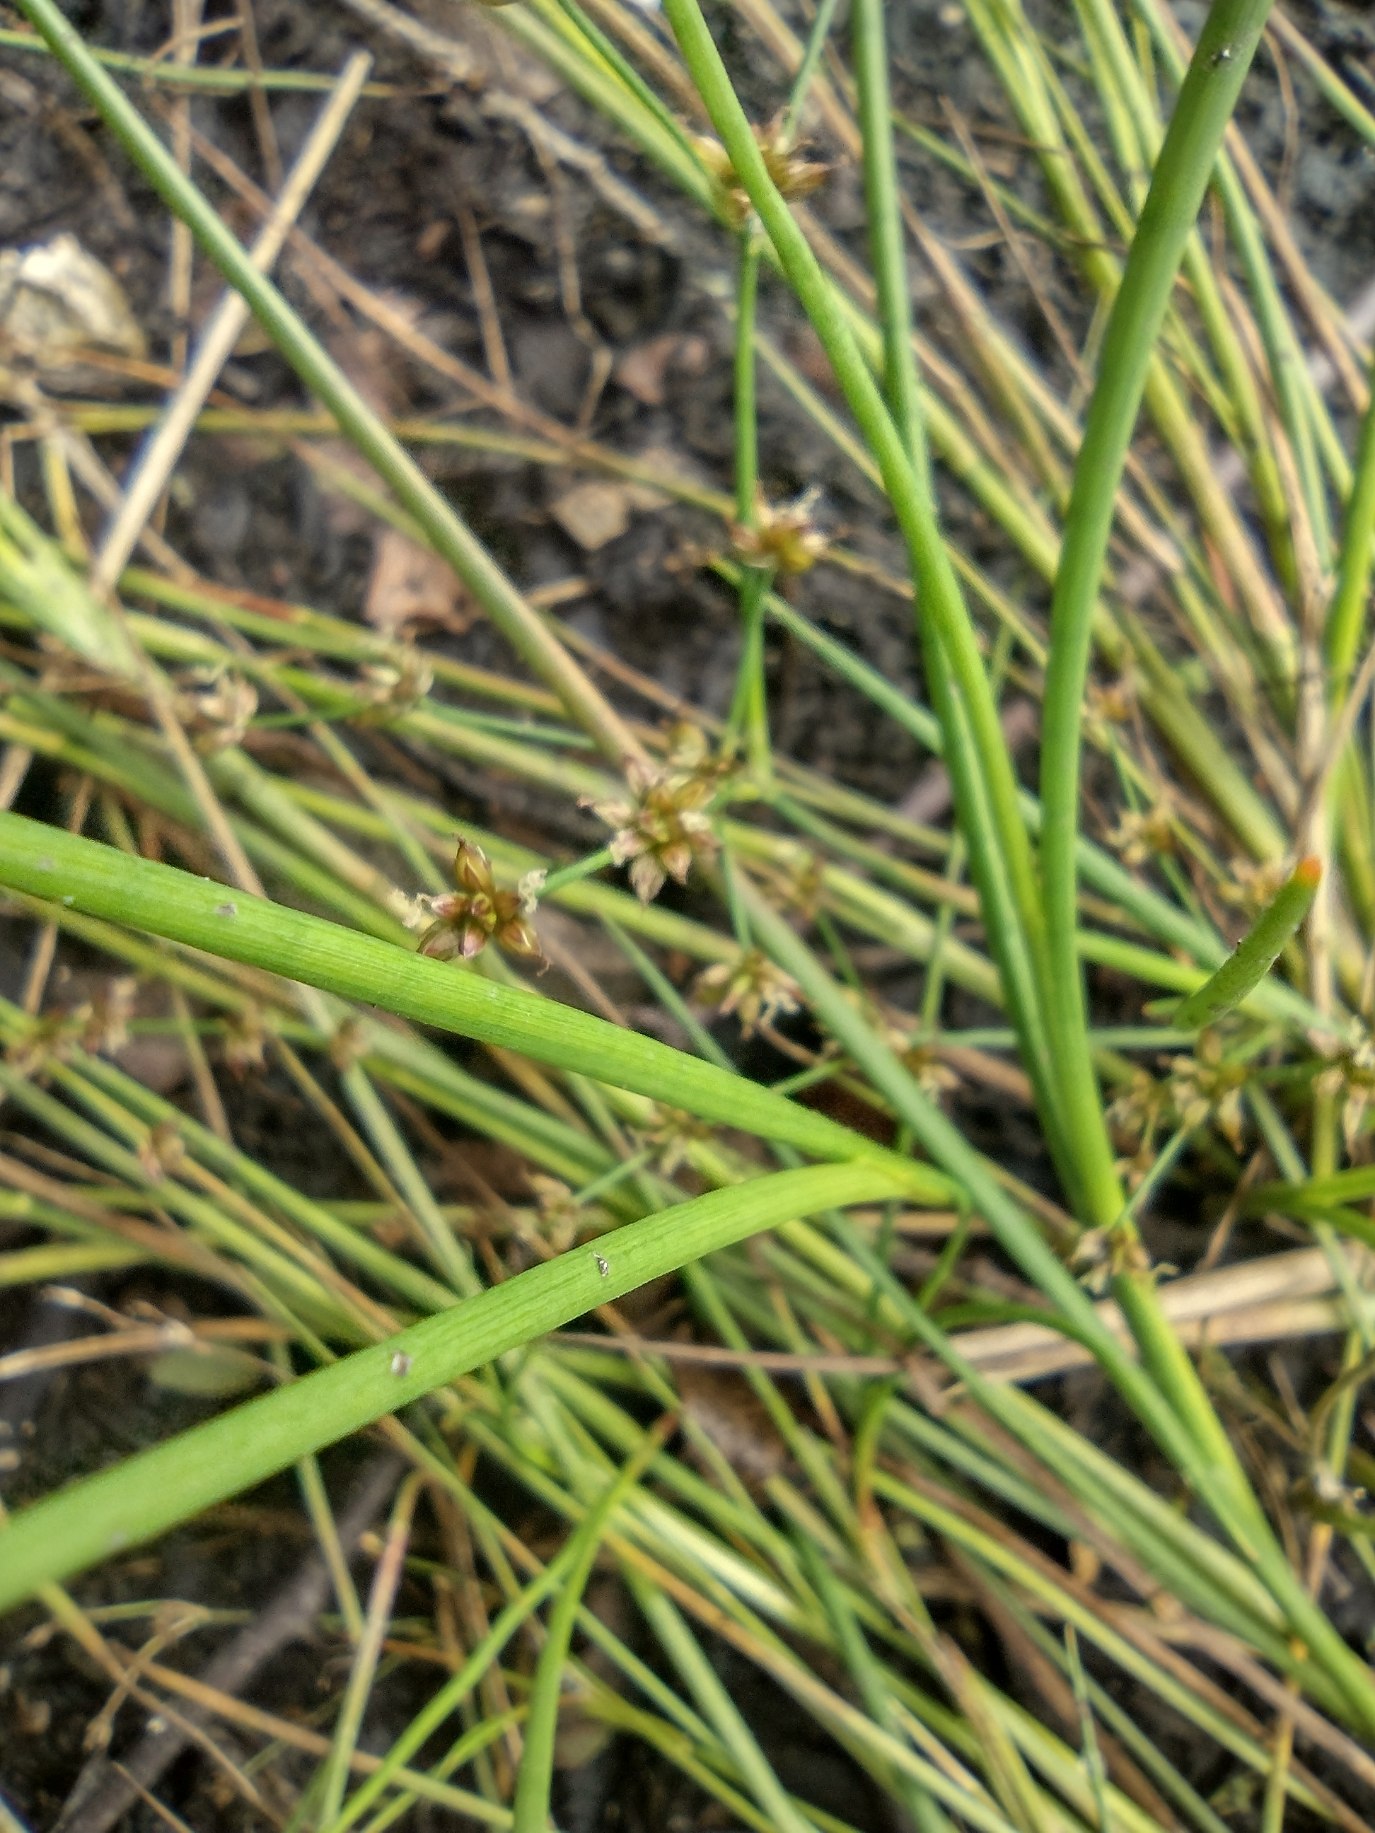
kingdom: Plantae
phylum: Tracheophyta
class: Liliopsida
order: Poales
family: Juncaceae
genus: Juncus
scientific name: Juncus articulatus
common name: Glanskapslet siv
